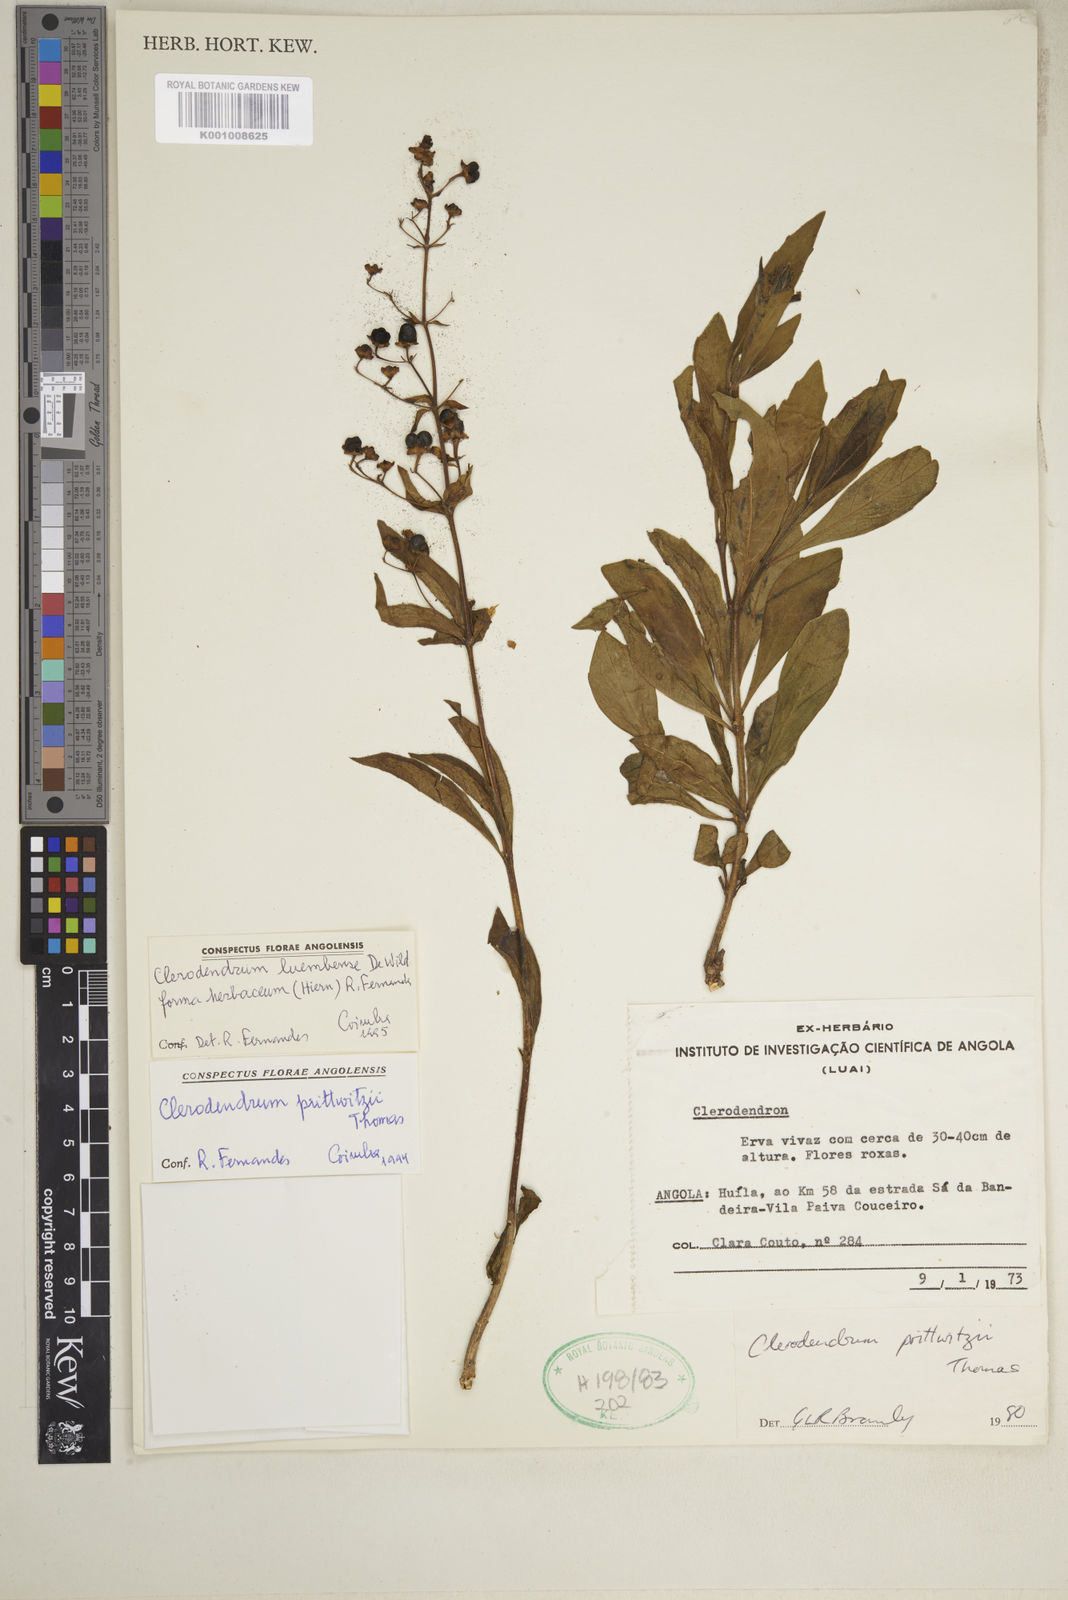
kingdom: Plantae
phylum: Tracheophyta
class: Magnoliopsida
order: Lamiales
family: Lamiaceae
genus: Rotheca
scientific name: Rotheca luembensis
